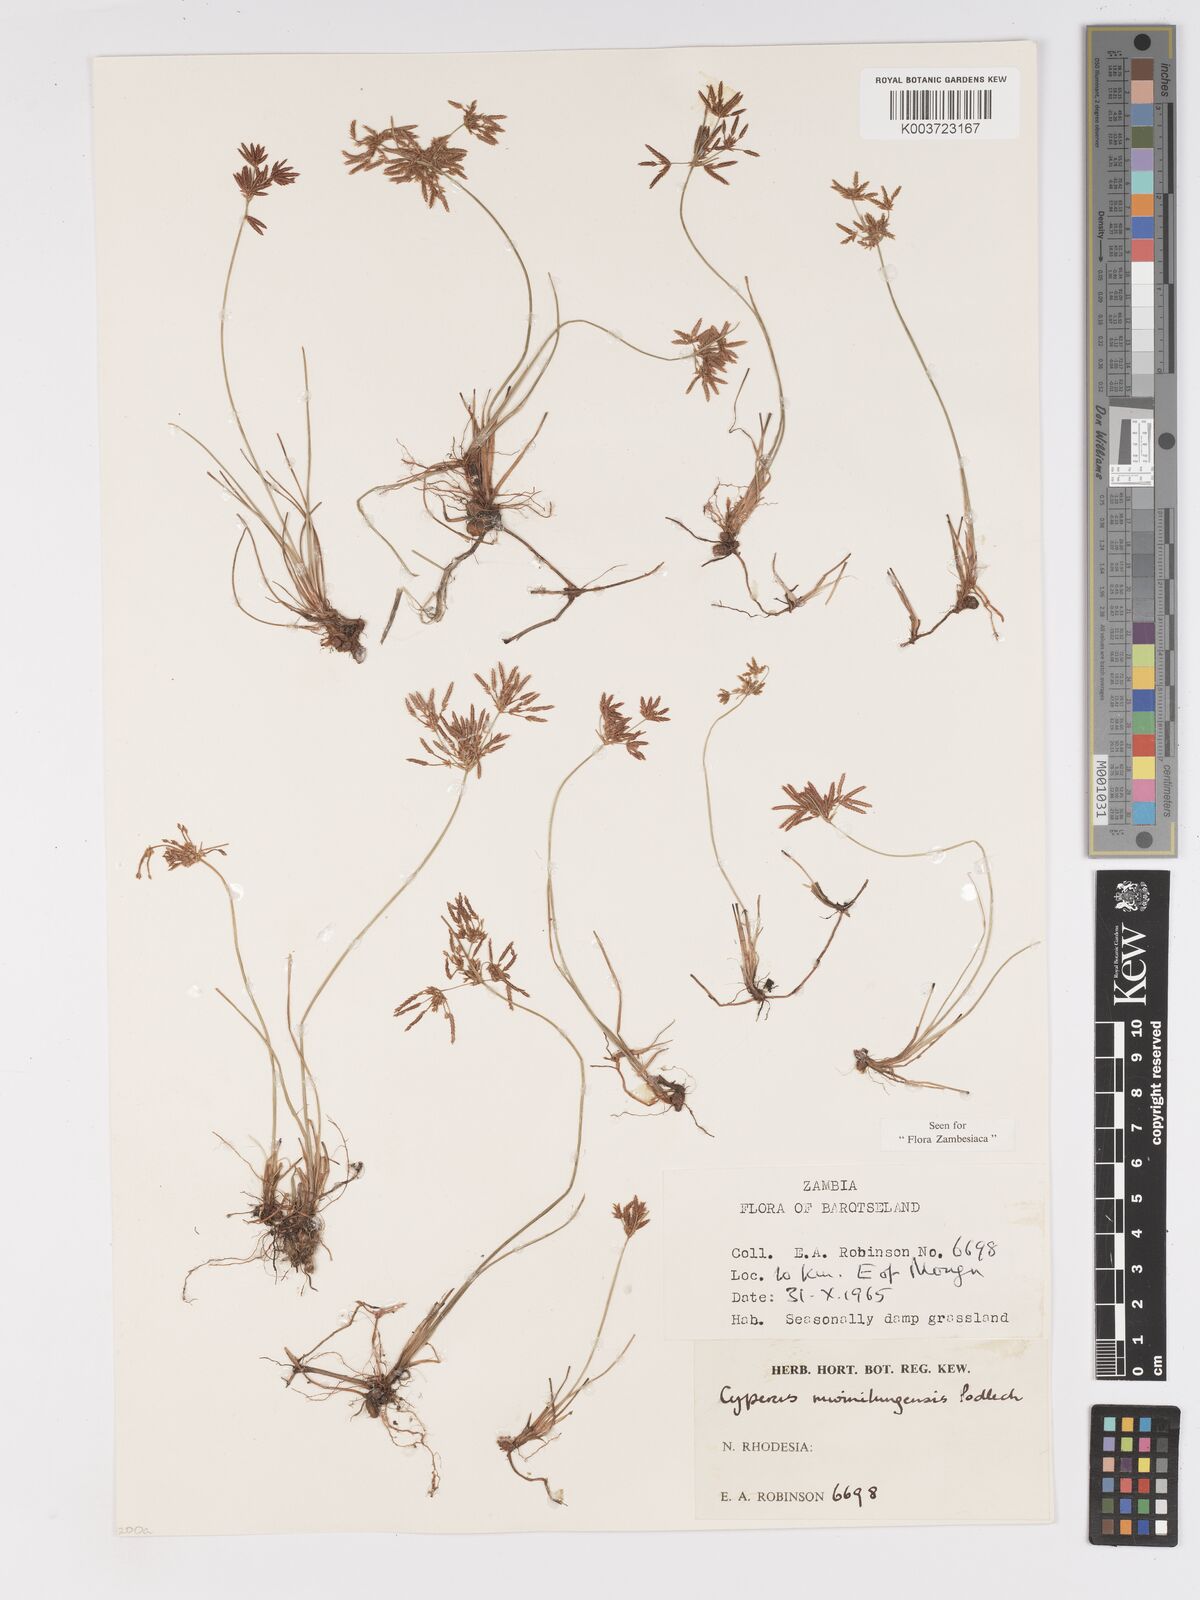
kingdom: Plantae
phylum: Tracheophyta
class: Liliopsida
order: Poales
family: Cyperaceae
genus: Cyperus
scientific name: Cyperus mwinilungensis
